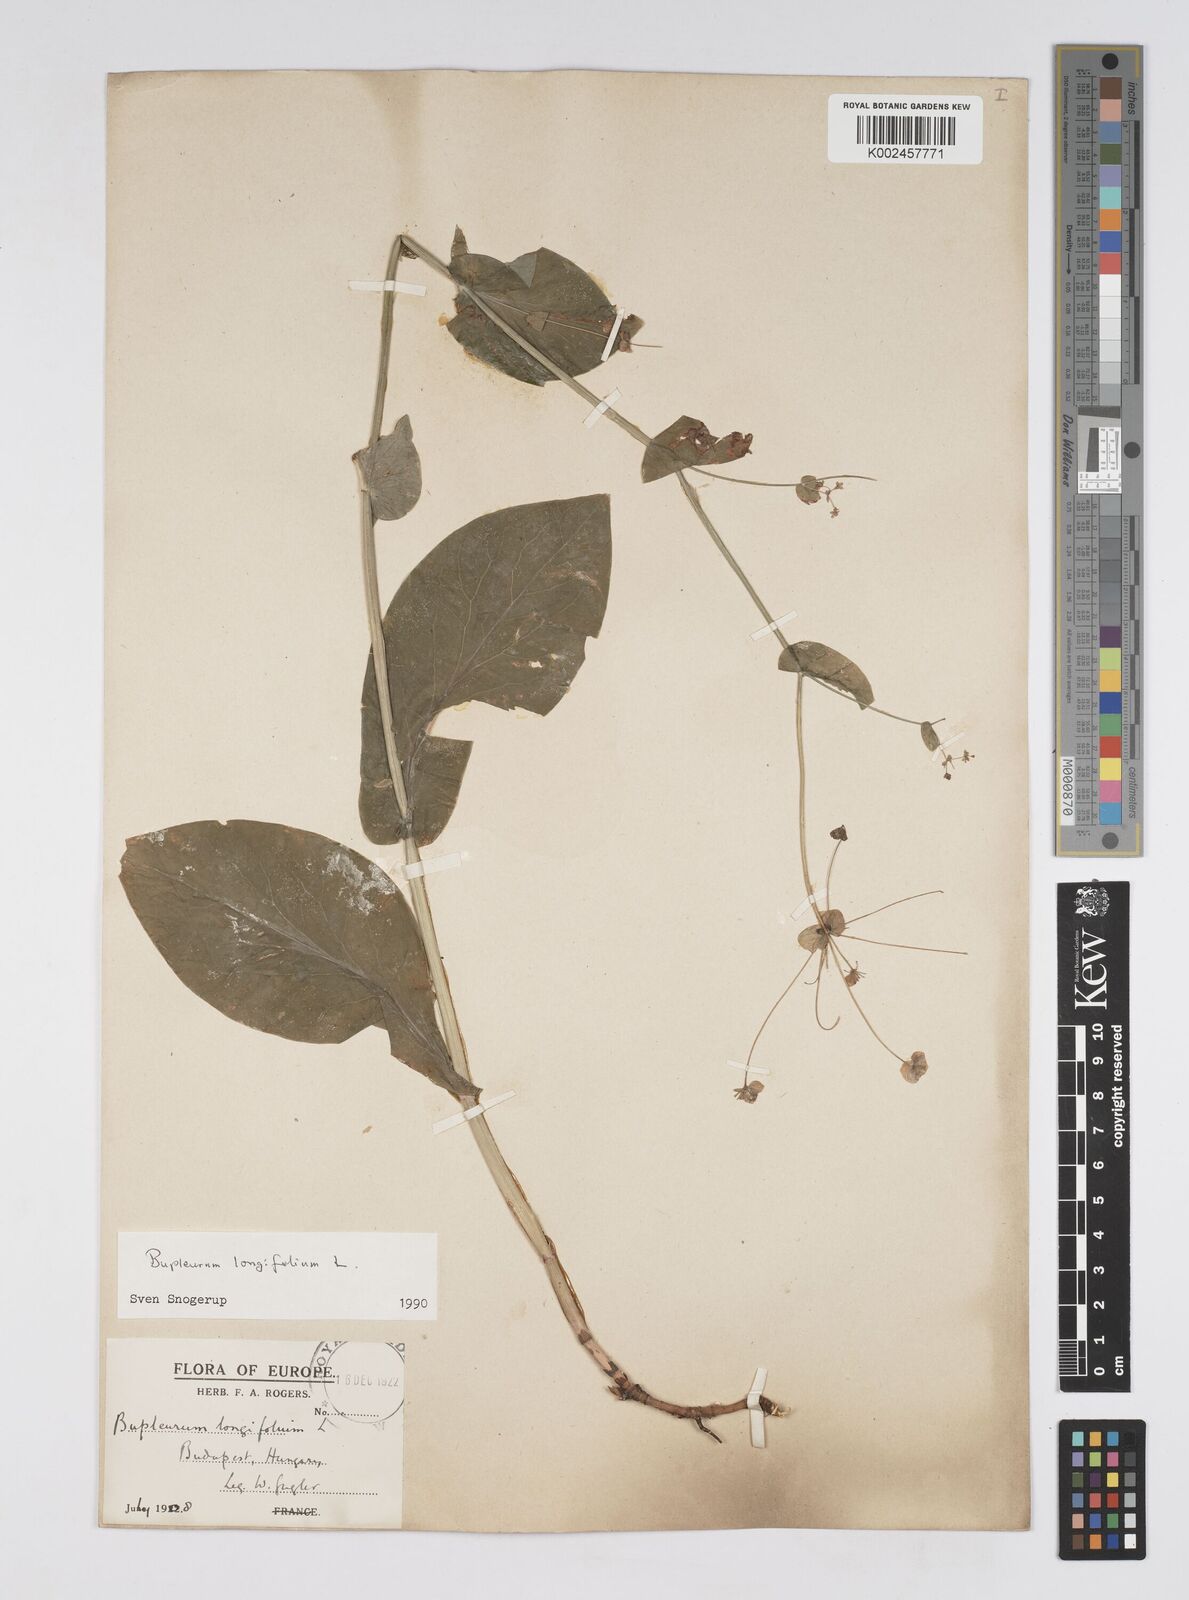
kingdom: Plantae
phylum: Tracheophyta
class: Magnoliopsida
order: Apiales
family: Apiaceae
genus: Bupleurum
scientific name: Bupleurum longifolium
